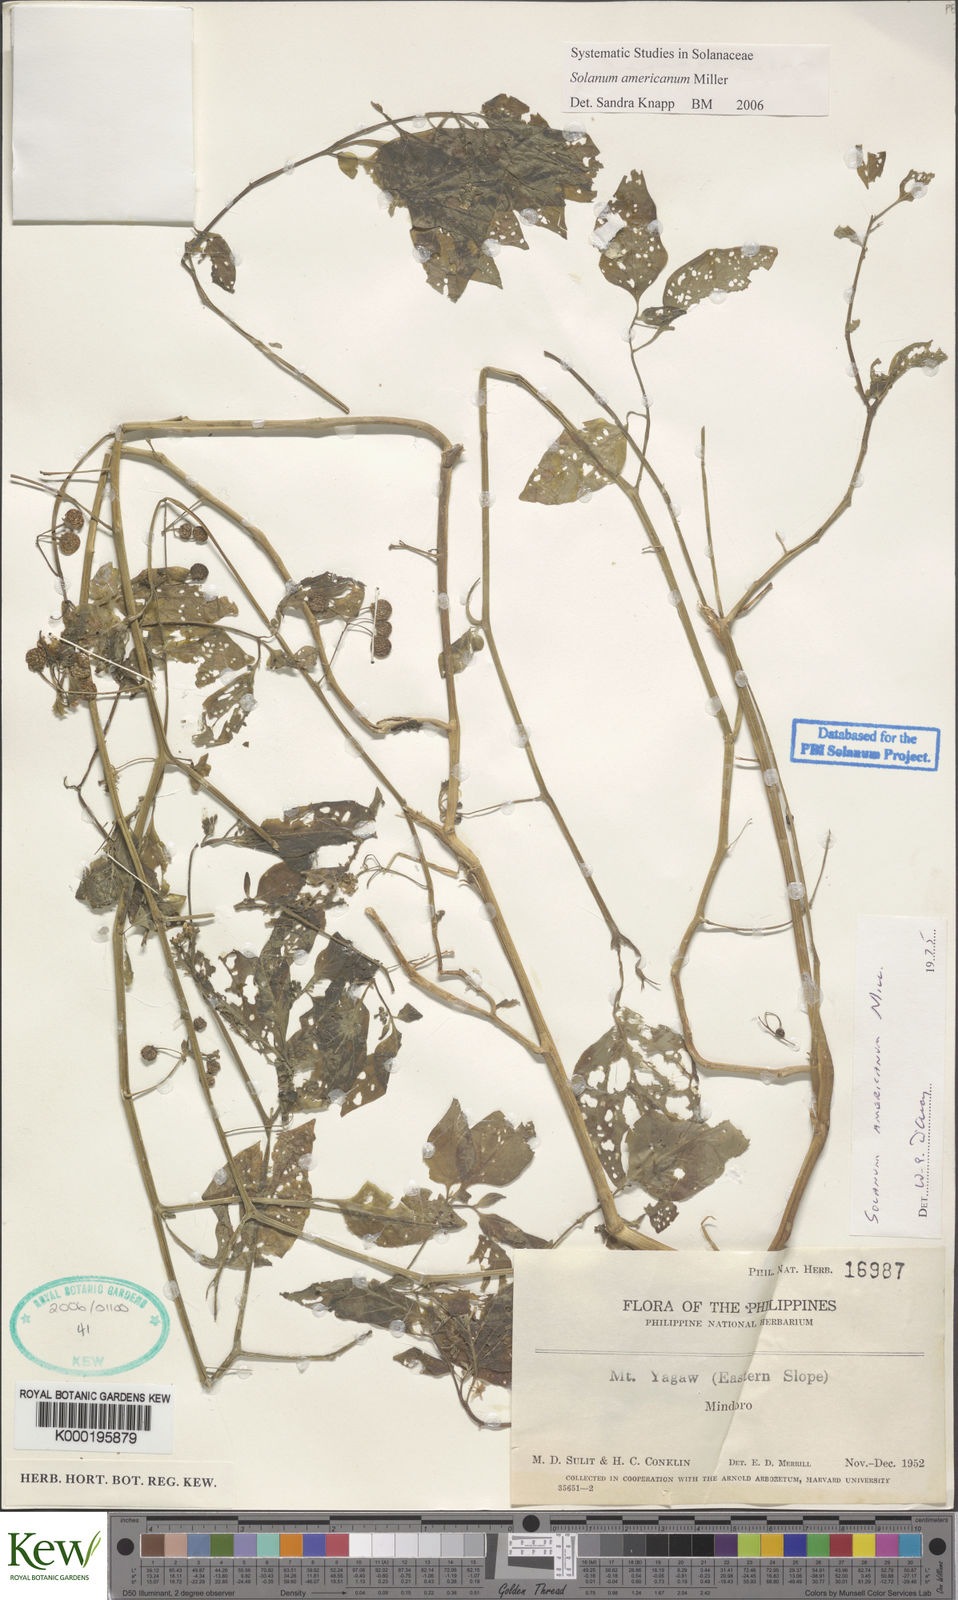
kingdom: Plantae
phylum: Tracheophyta
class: Magnoliopsida
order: Solanales
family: Solanaceae
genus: Solanum
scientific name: Solanum americanum
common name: American black nightshade
